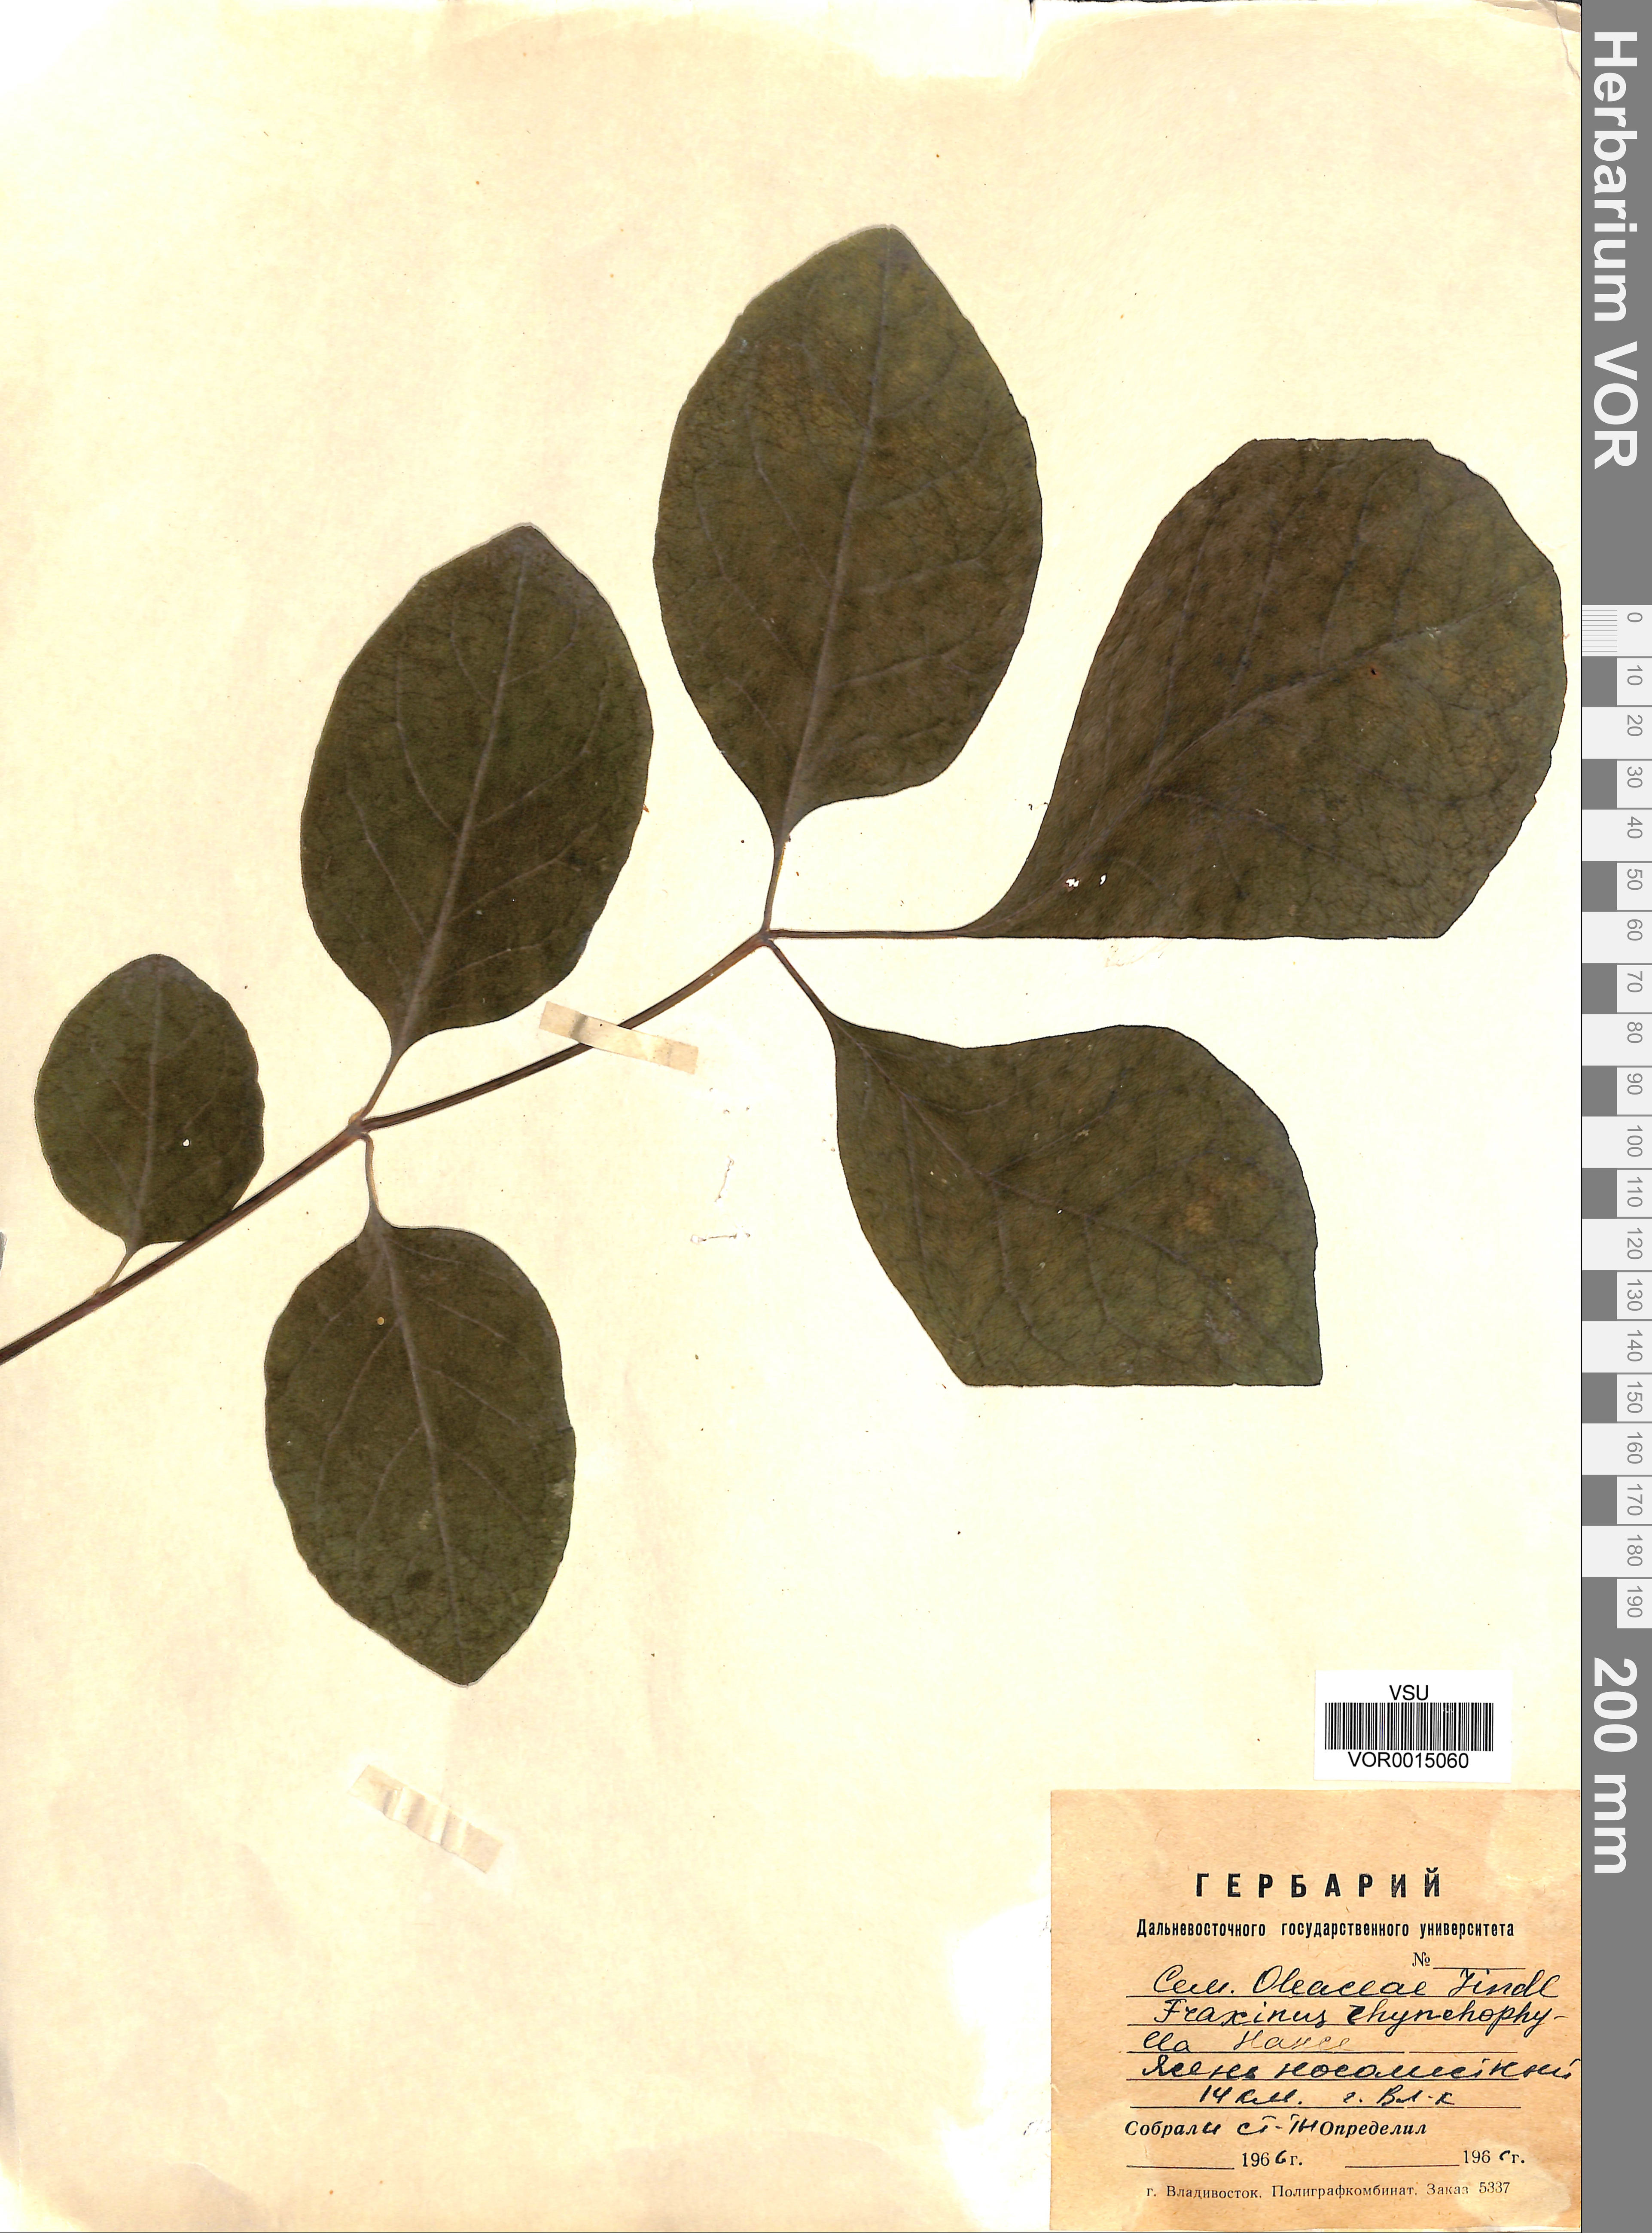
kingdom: Plantae
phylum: Tracheophyta
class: Magnoliopsida
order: Lamiales
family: Oleaceae
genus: Fraxinus
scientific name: Fraxinus chinensis
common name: Chinese ash
